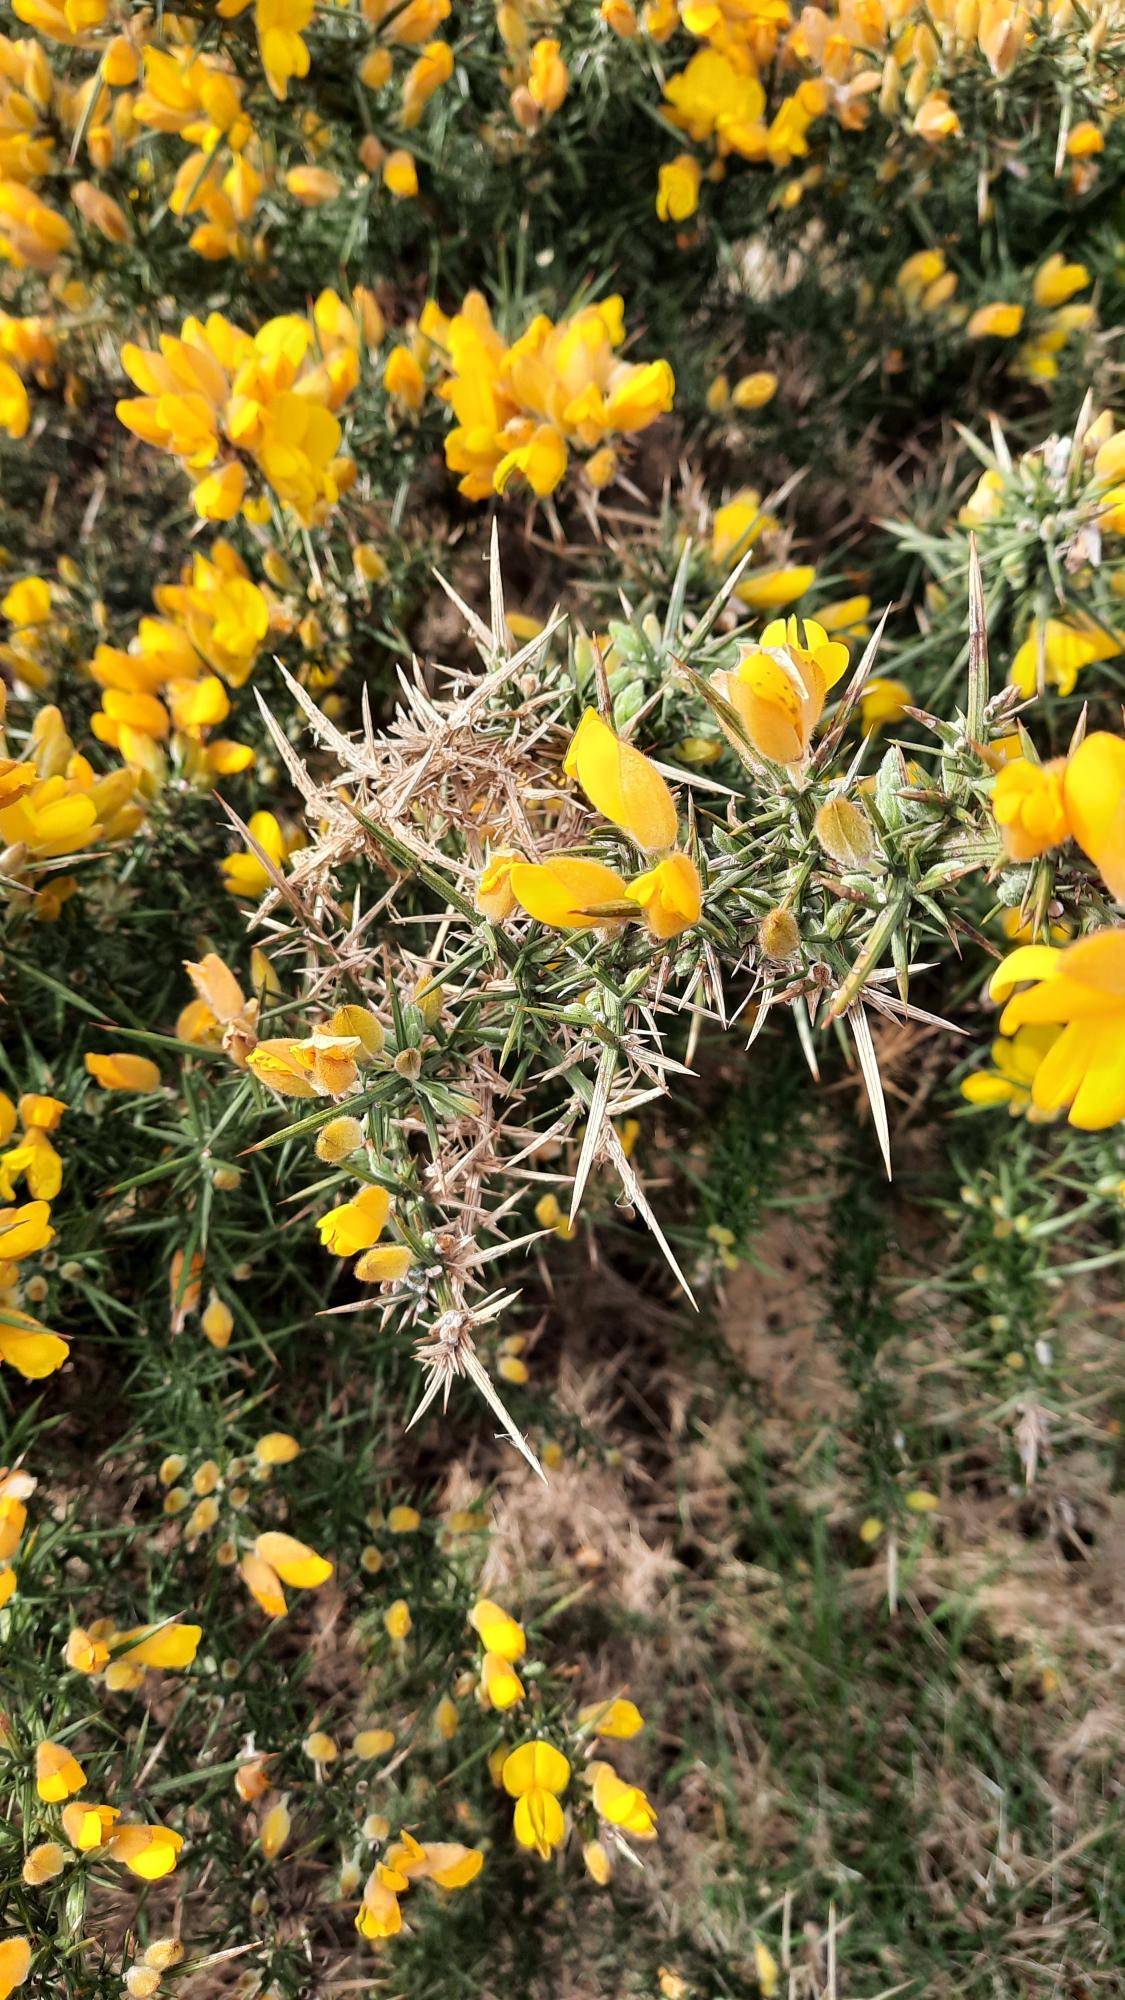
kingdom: Plantae
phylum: Tracheophyta
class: Magnoliopsida
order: Fabales
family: Fabaceae
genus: Ulex
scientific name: Ulex europaeus
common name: Tornblad
